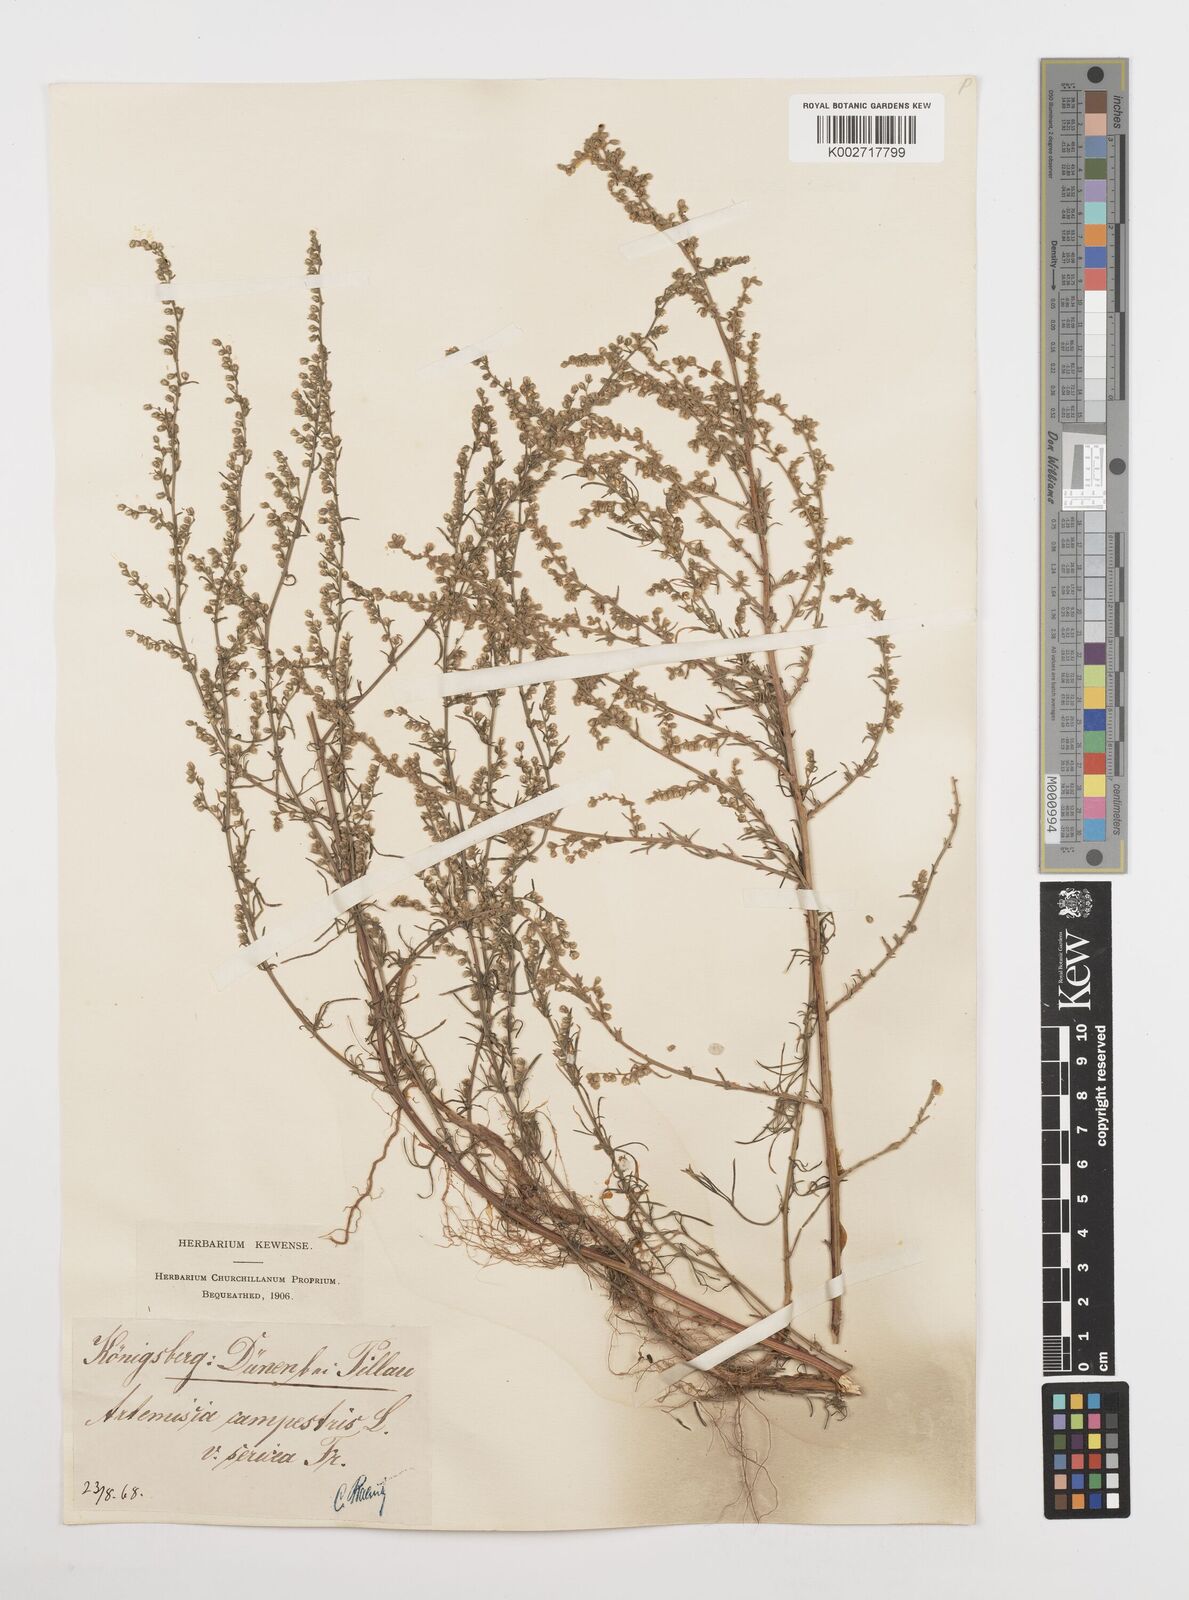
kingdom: Plantae
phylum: Tracheophyta
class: Magnoliopsida
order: Asterales
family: Asteraceae
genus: Artemisia
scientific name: Artemisia campestris
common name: Field wormwood
